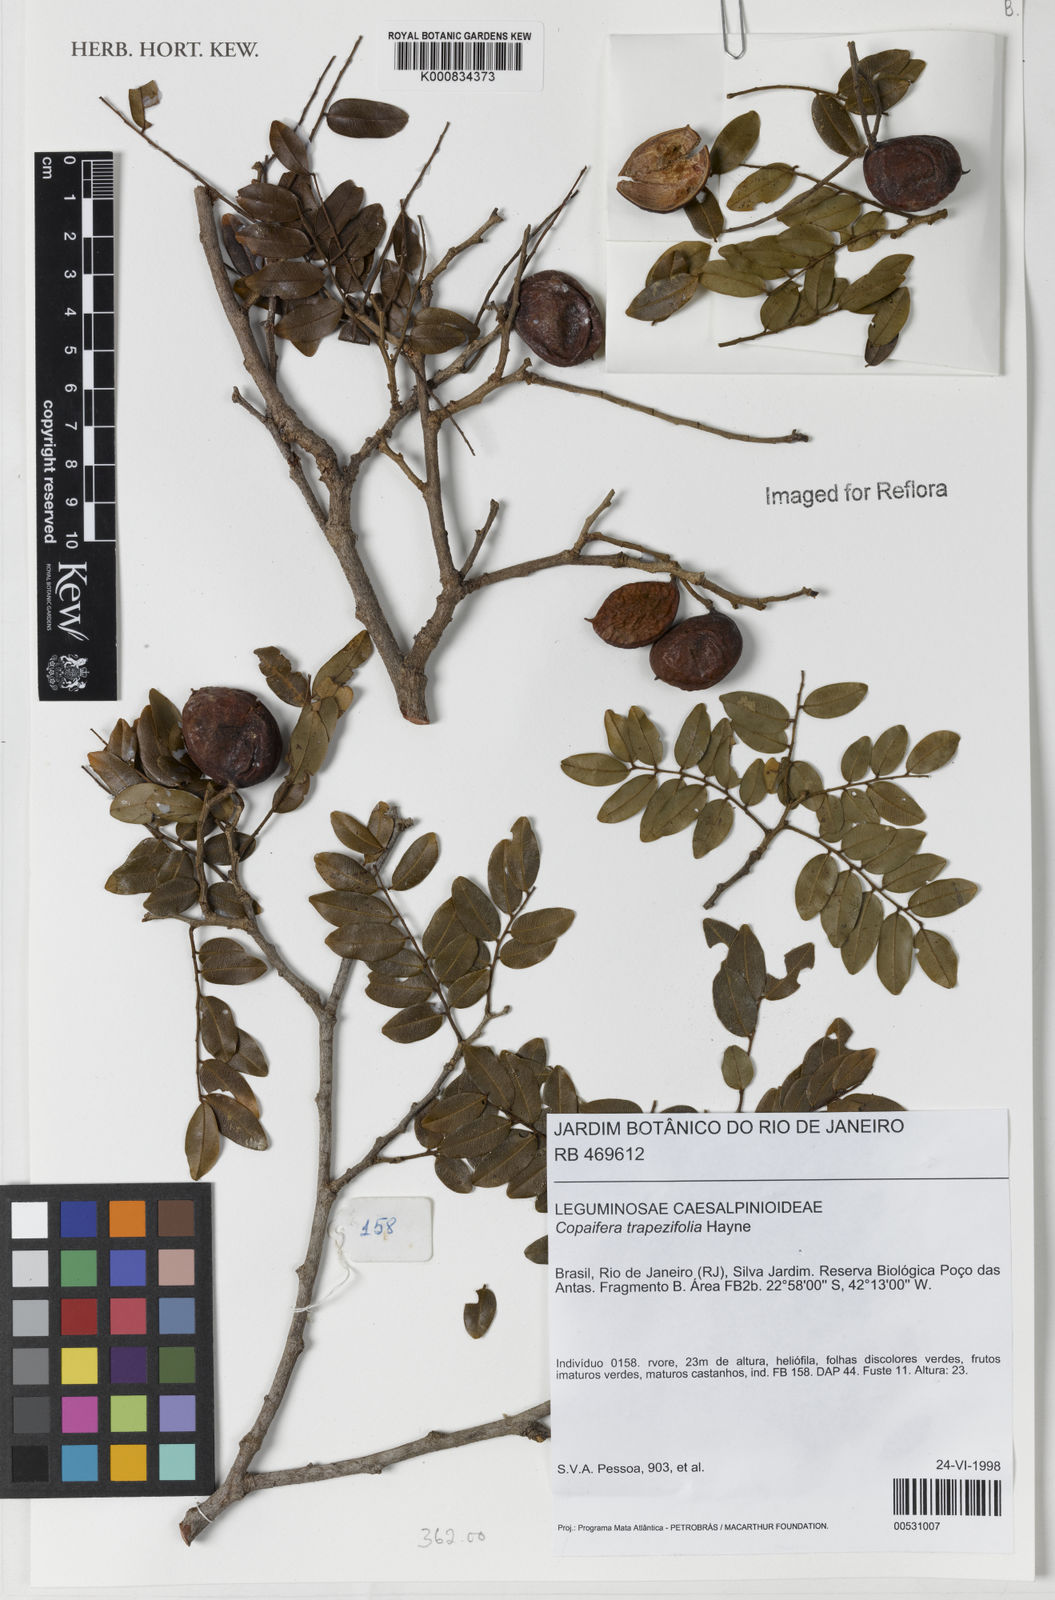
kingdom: Plantae
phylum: Tracheophyta
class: Magnoliopsida
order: Fabales
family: Fabaceae
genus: Copaifera
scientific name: Copaifera trapezifolia
